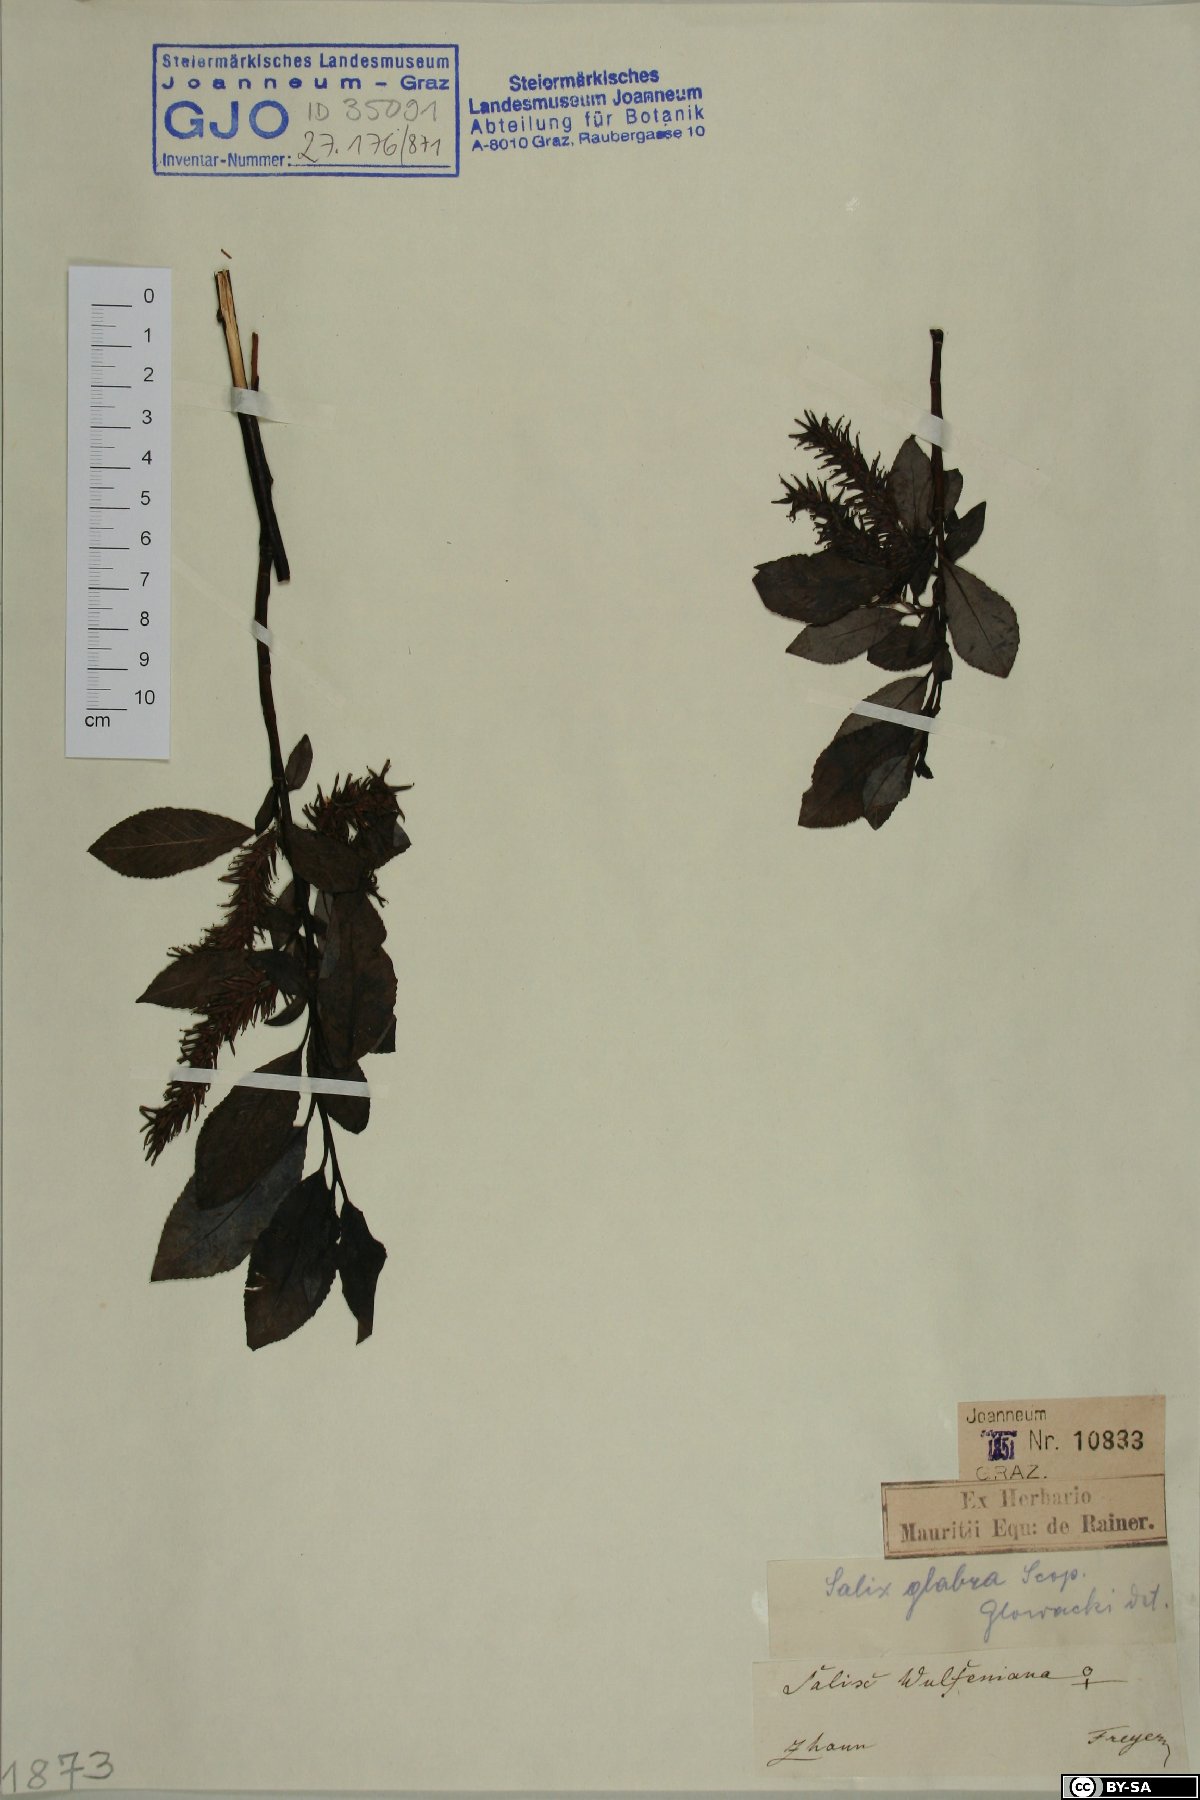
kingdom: Plantae
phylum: Tracheophyta
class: Magnoliopsida
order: Malpighiales
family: Salicaceae
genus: Salix
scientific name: Salix glabra
